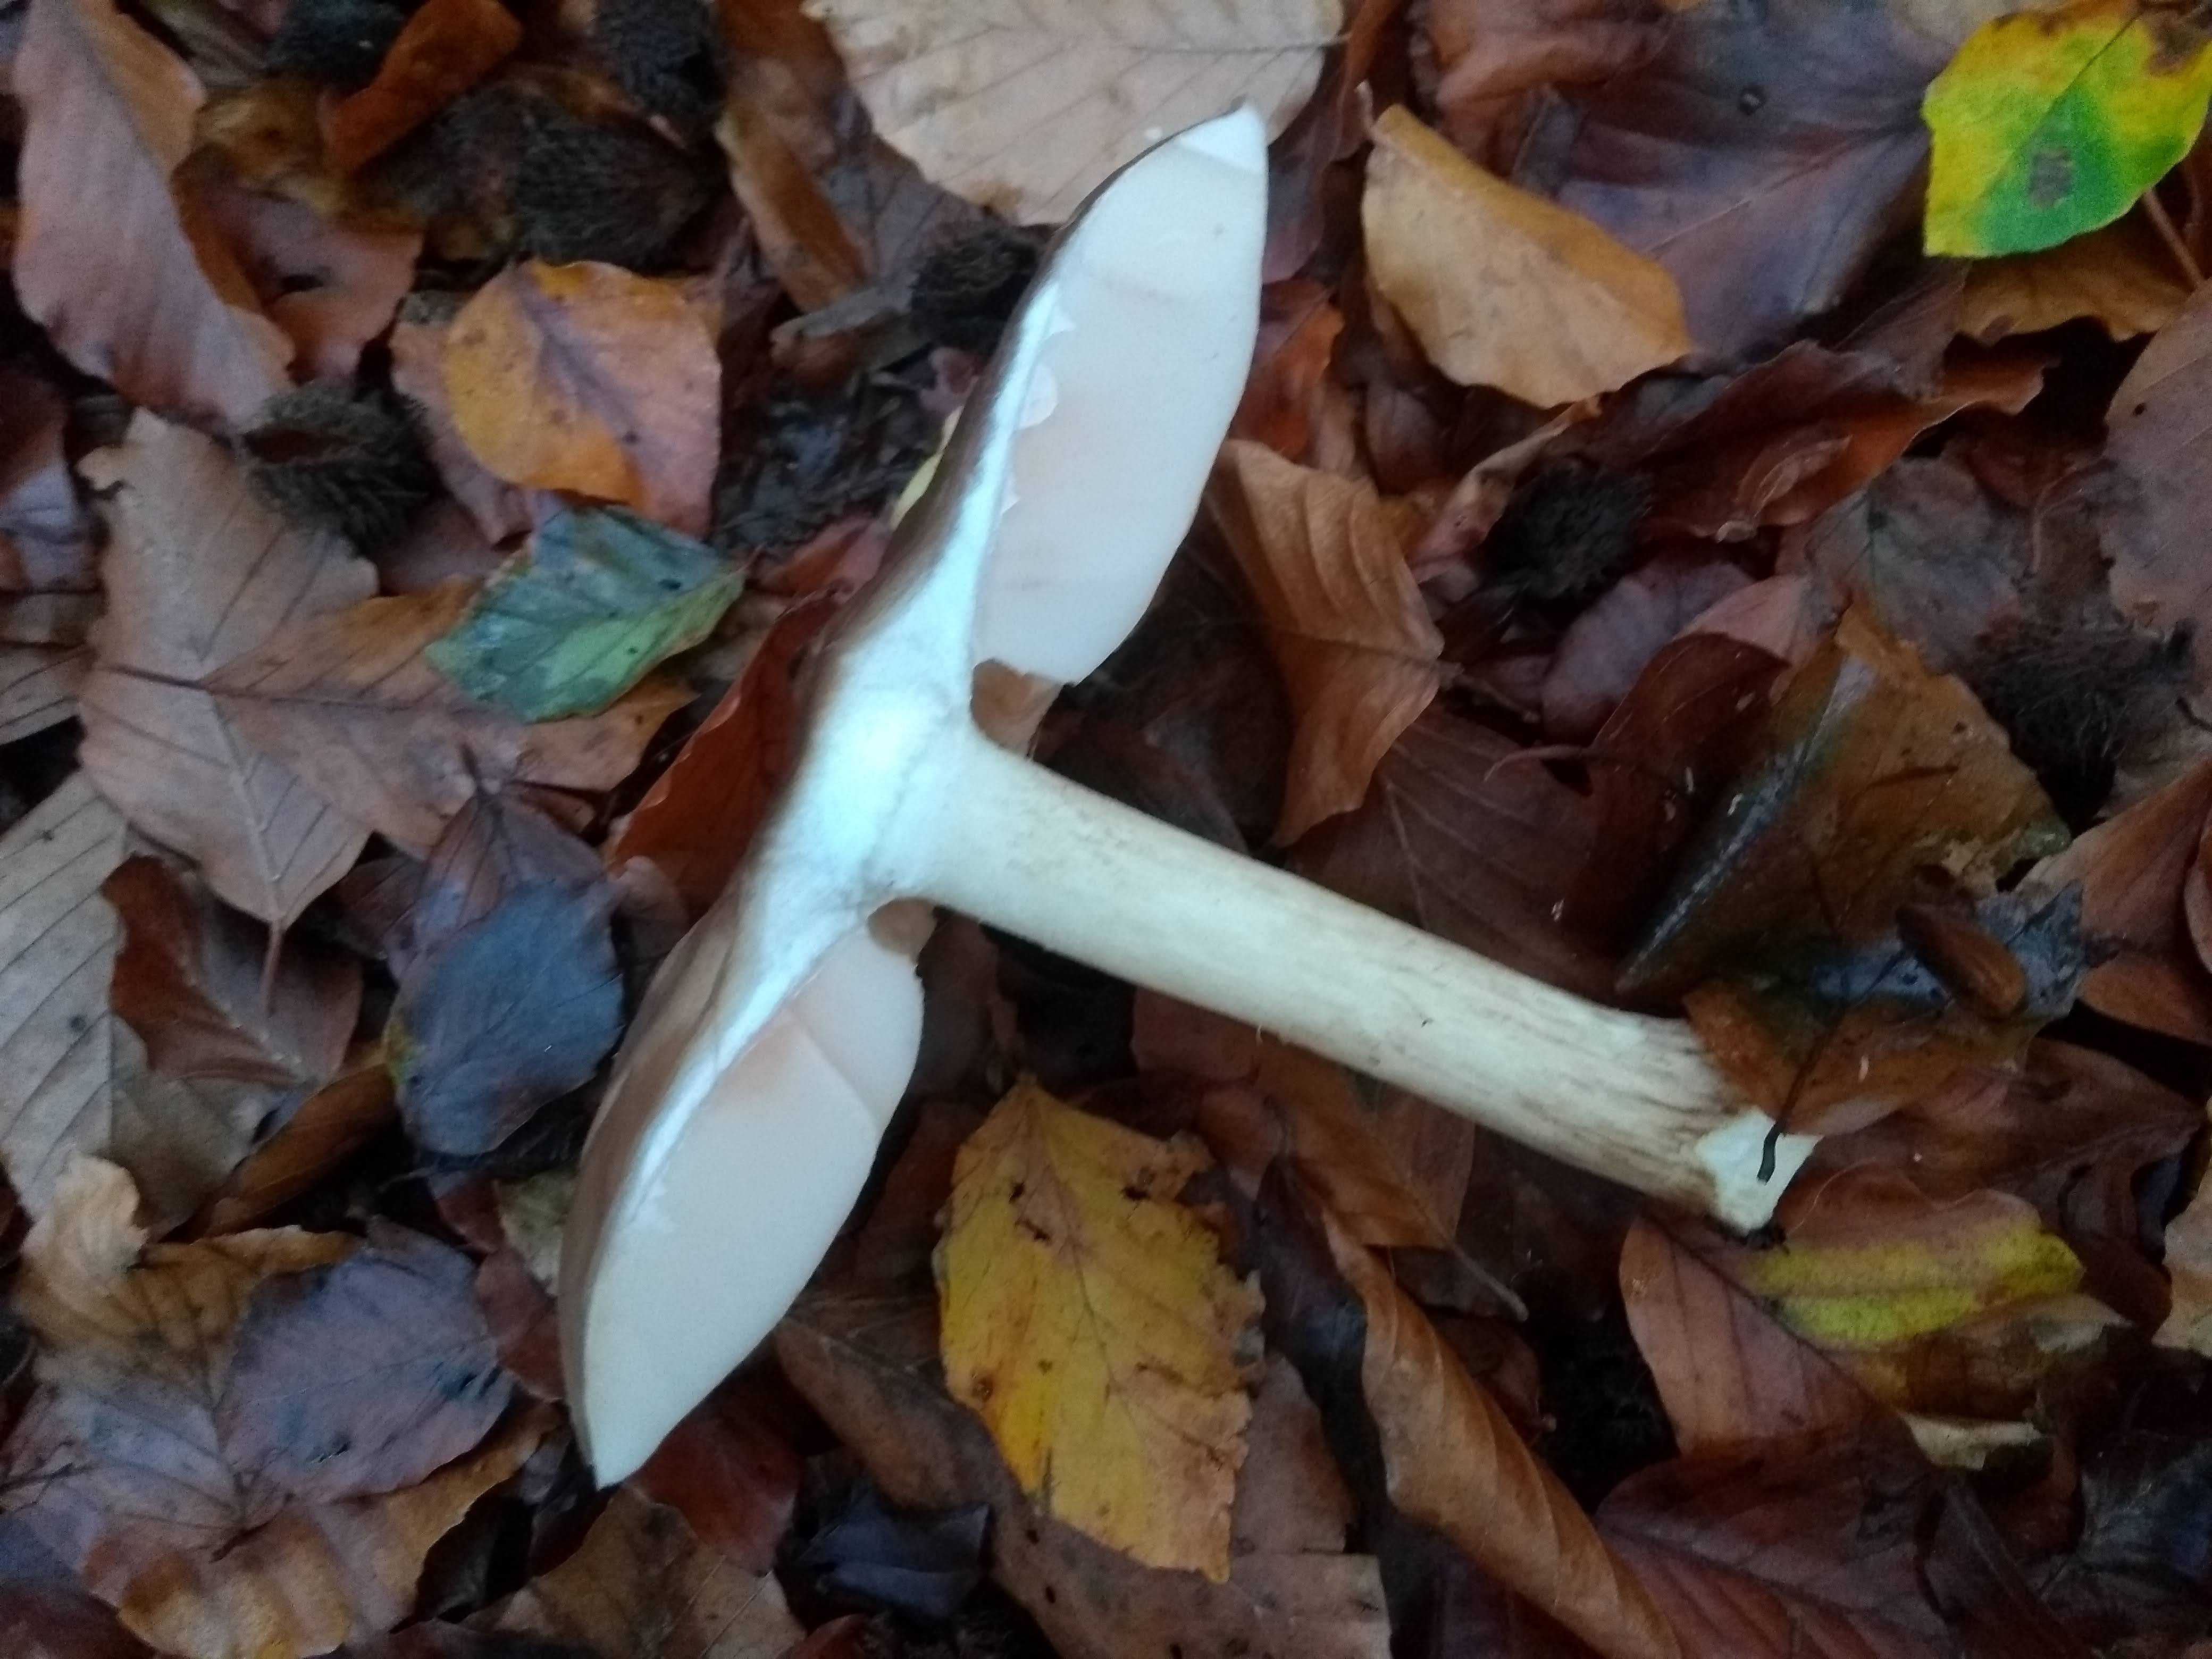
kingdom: Fungi
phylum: Basidiomycota
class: Agaricomycetes
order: Agaricales
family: Pluteaceae
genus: Pluteus
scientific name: Pluteus cervinus
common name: sodfarvet skærmhat
